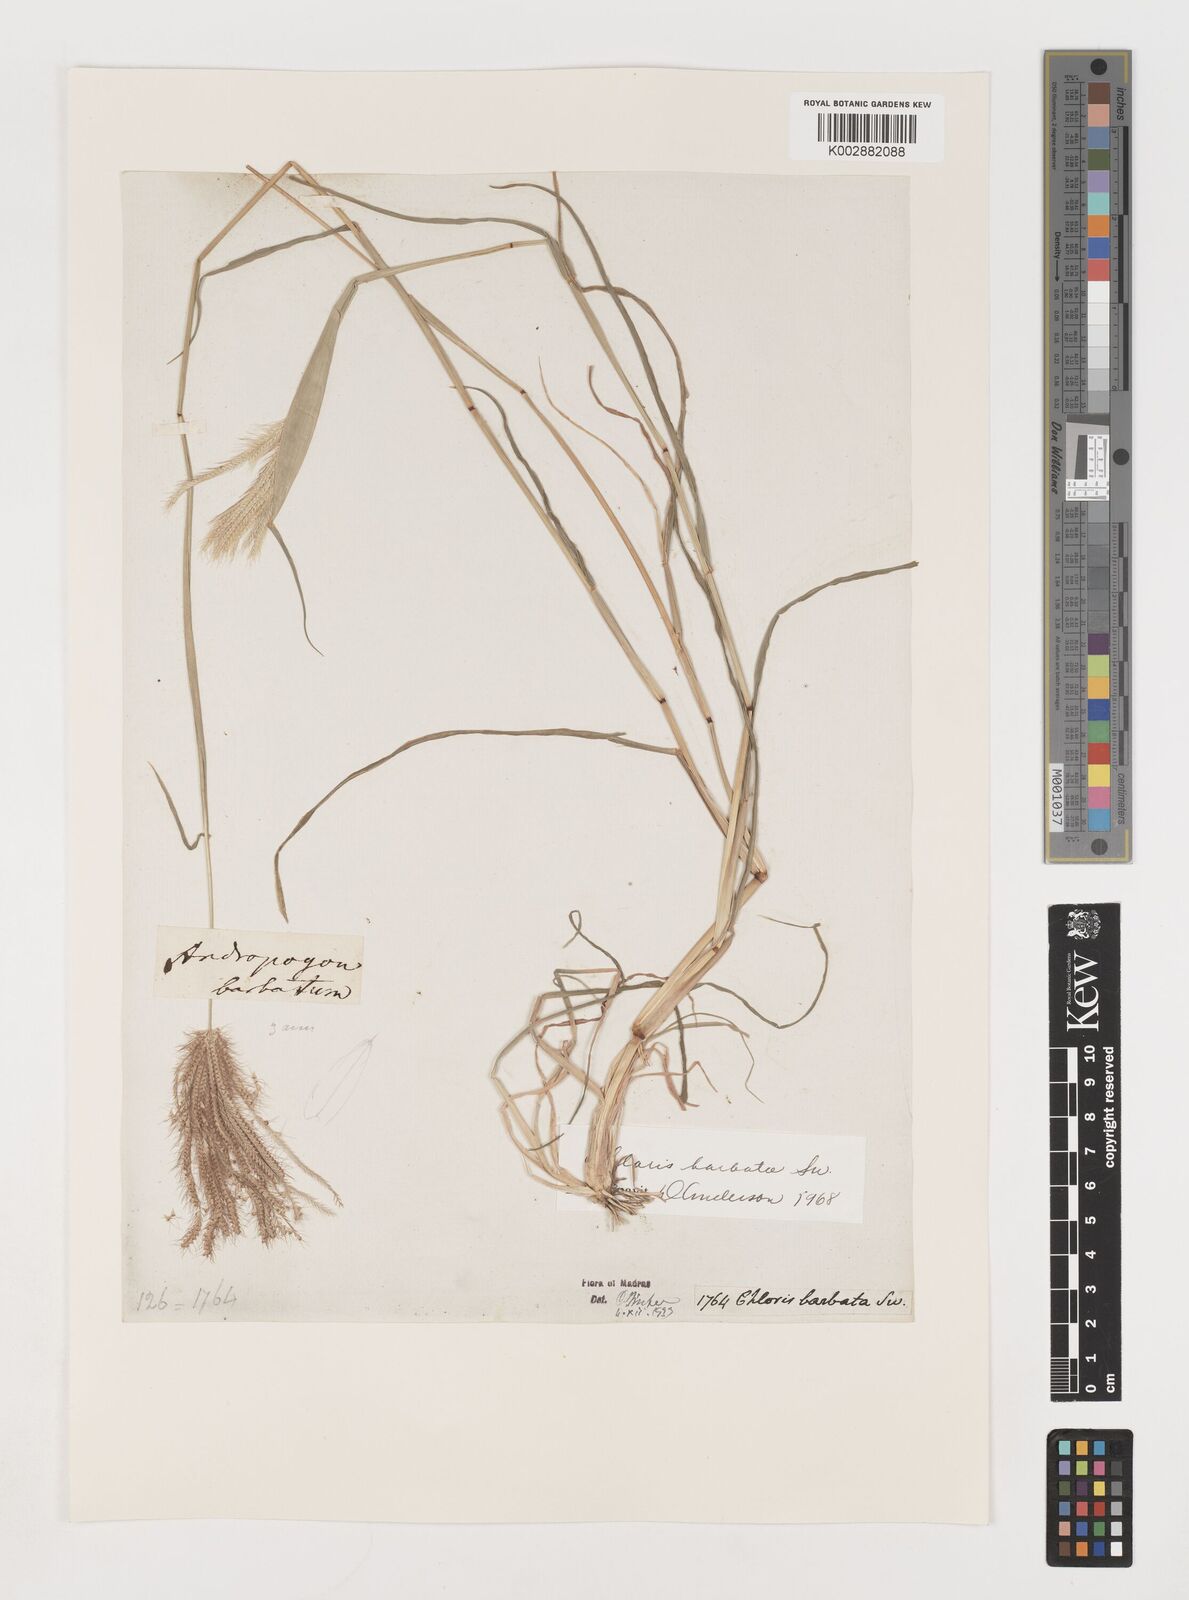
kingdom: Plantae
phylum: Tracheophyta
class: Liliopsida
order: Poales
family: Poaceae
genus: Chloris
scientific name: Chloris barbata
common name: Swollen fingergrass
